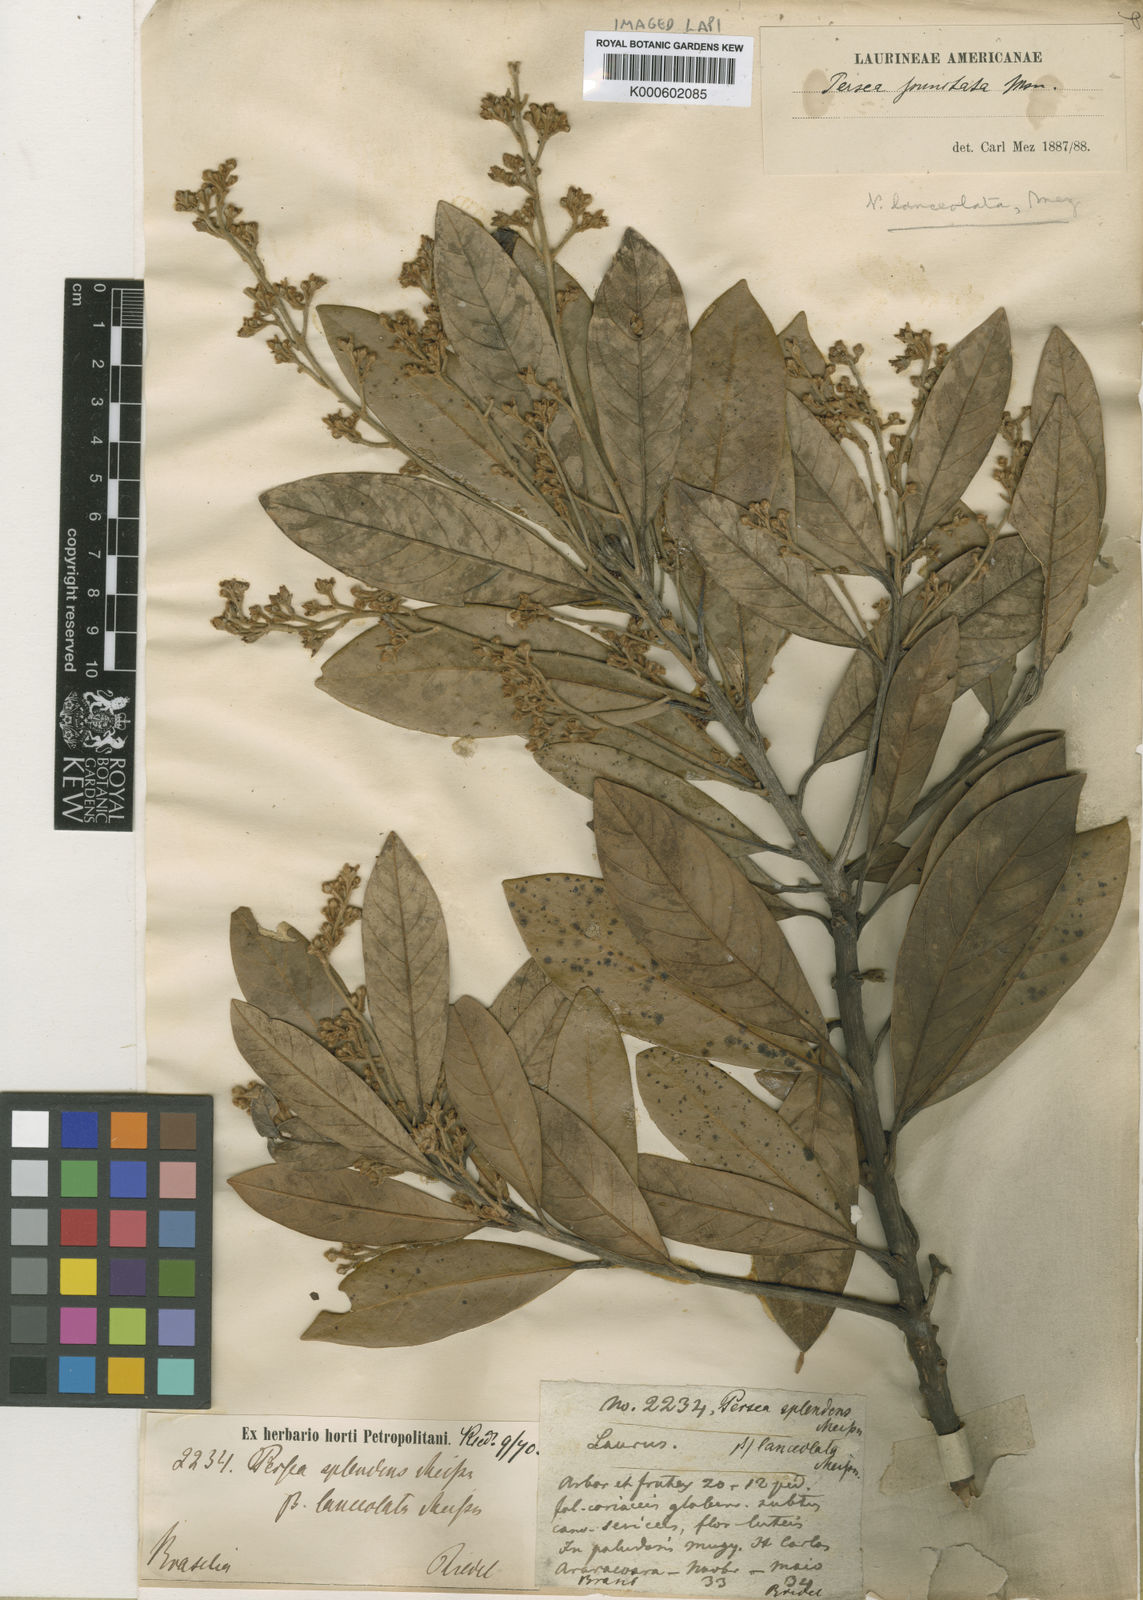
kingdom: Plantae
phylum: Tracheophyta
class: Magnoliopsida
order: Laurales
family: Lauraceae
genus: Persea
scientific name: Persea
